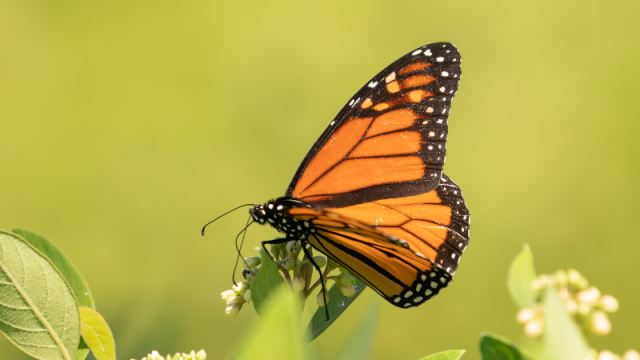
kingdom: Animalia
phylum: Arthropoda
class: Insecta
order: Lepidoptera
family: Nymphalidae
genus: Danaus
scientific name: Danaus plexippus
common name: Monarch
